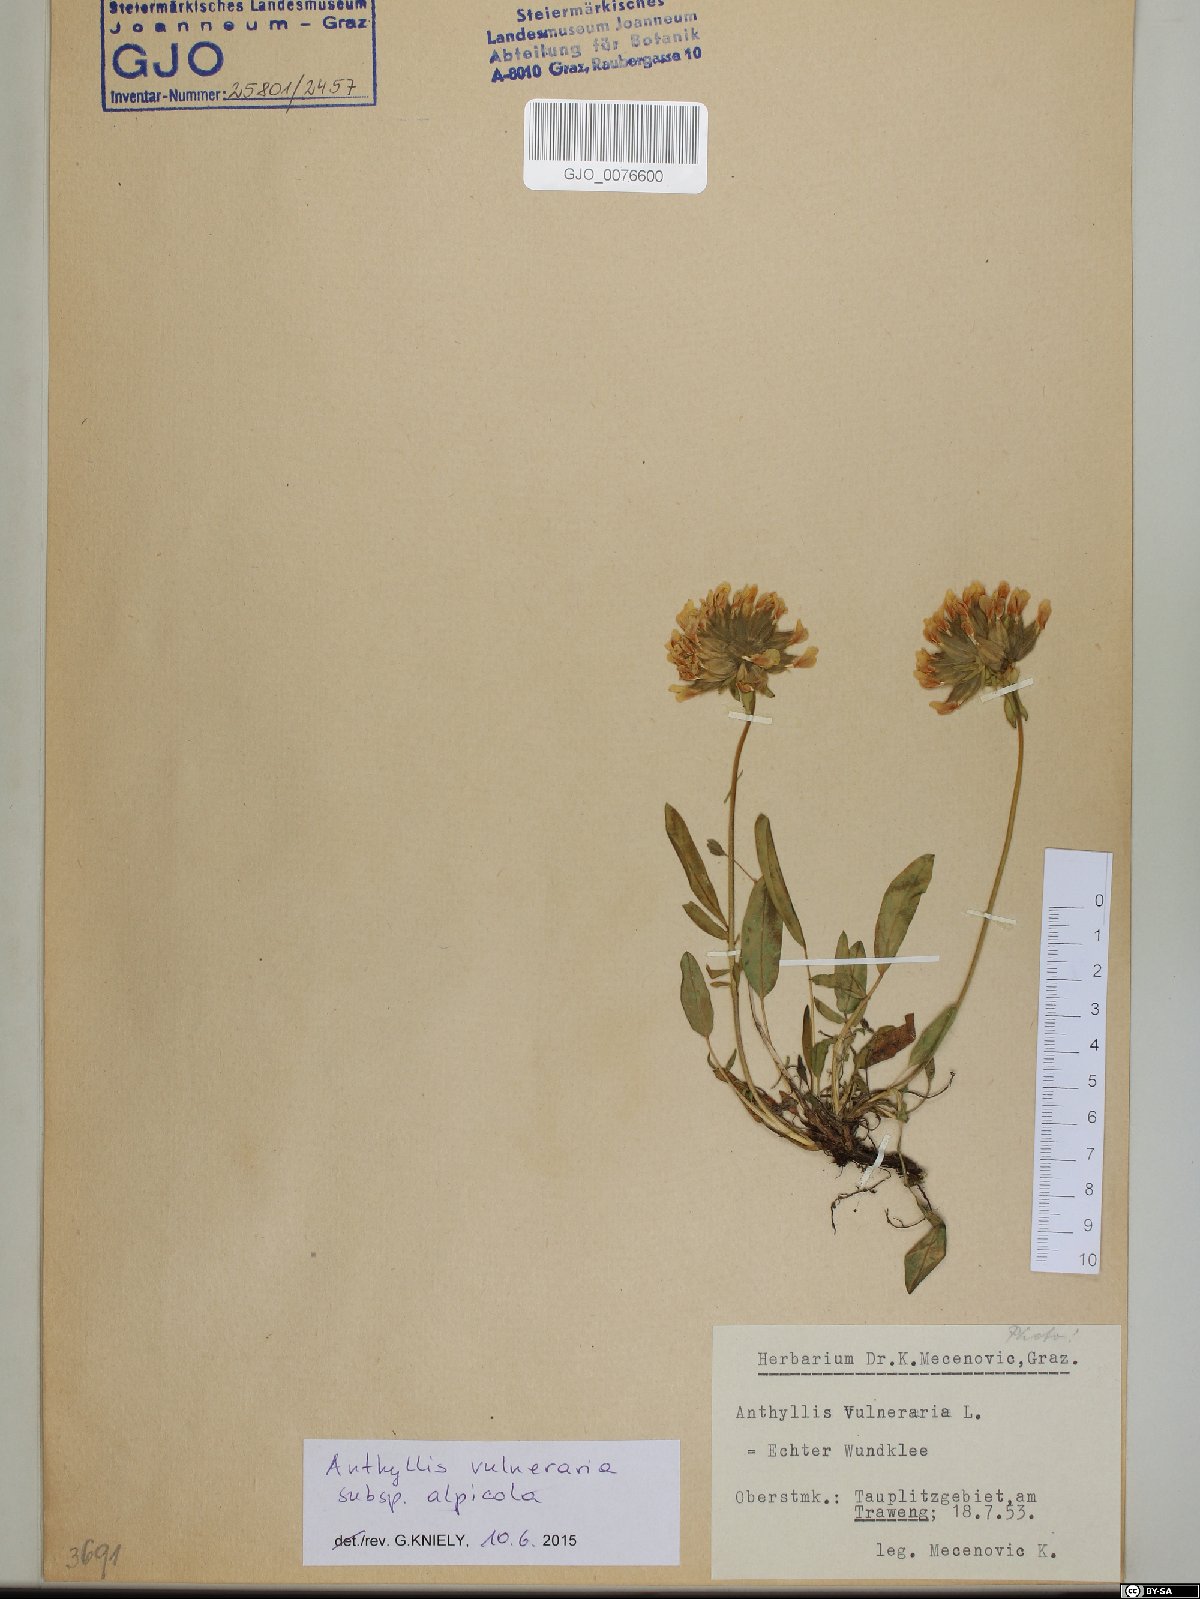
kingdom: Plantae
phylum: Tracheophyta
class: Magnoliopsida
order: Fabales
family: Fabaceae
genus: Anthyllis
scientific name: Anthyllis vulneraria
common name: Kidney vetch
